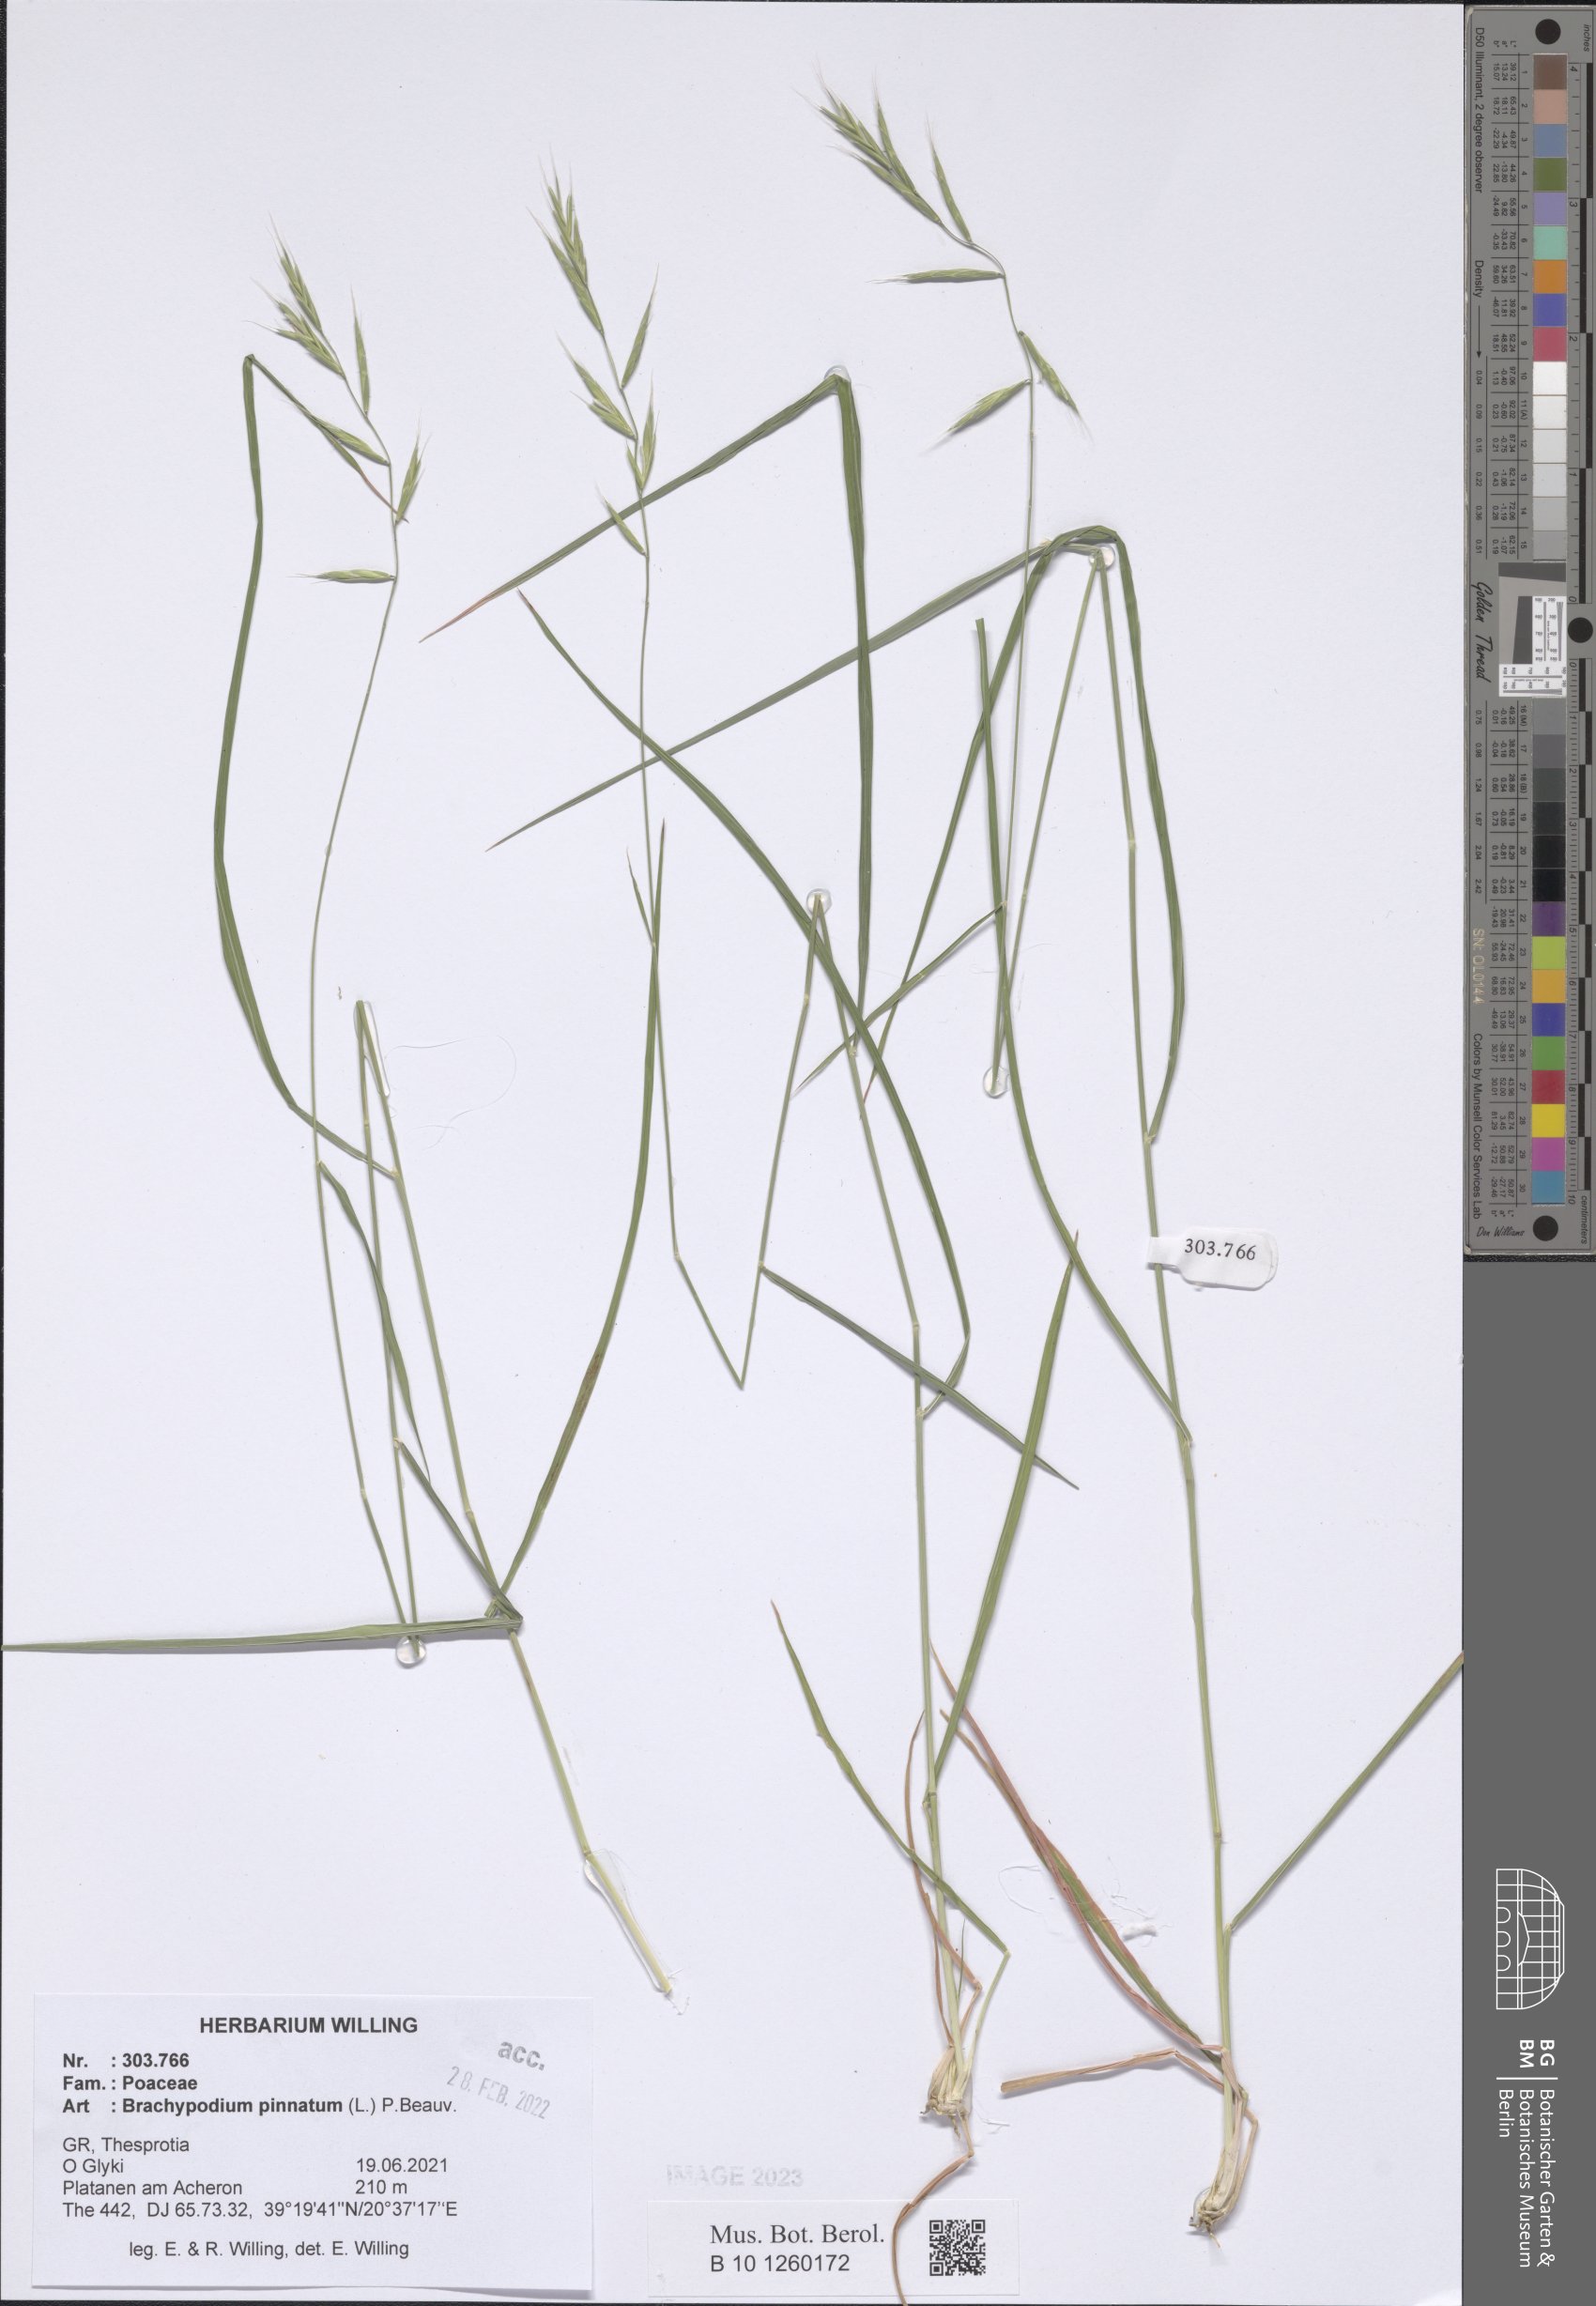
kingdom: Plantae
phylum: Tracheophyta
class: Liliopsida
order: Poales
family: Poaceae
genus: Brachypodium
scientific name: Brachypodium pinnatum
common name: Tor grass
